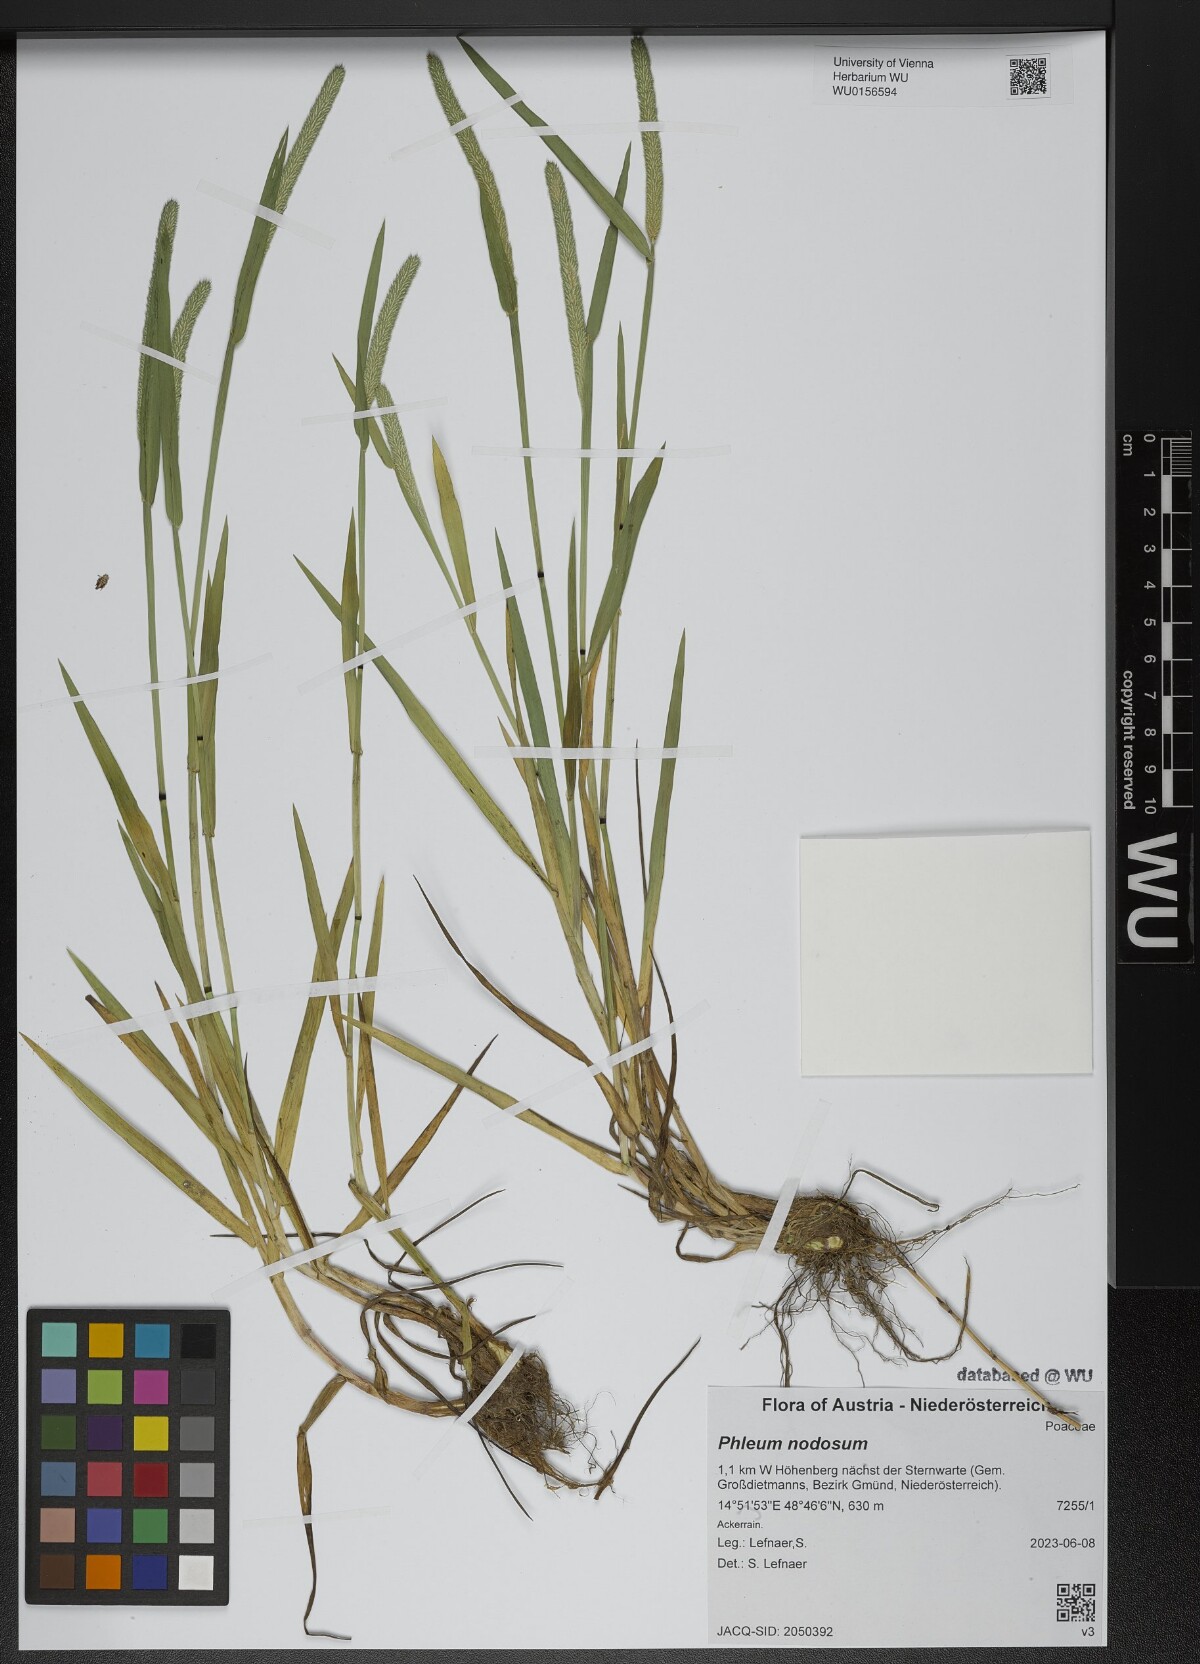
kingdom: Plantae
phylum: Tracheophyta
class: Liliopsida
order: Poales
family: Poaceae
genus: Phleum
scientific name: Phleum pratense
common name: Timothy grass
